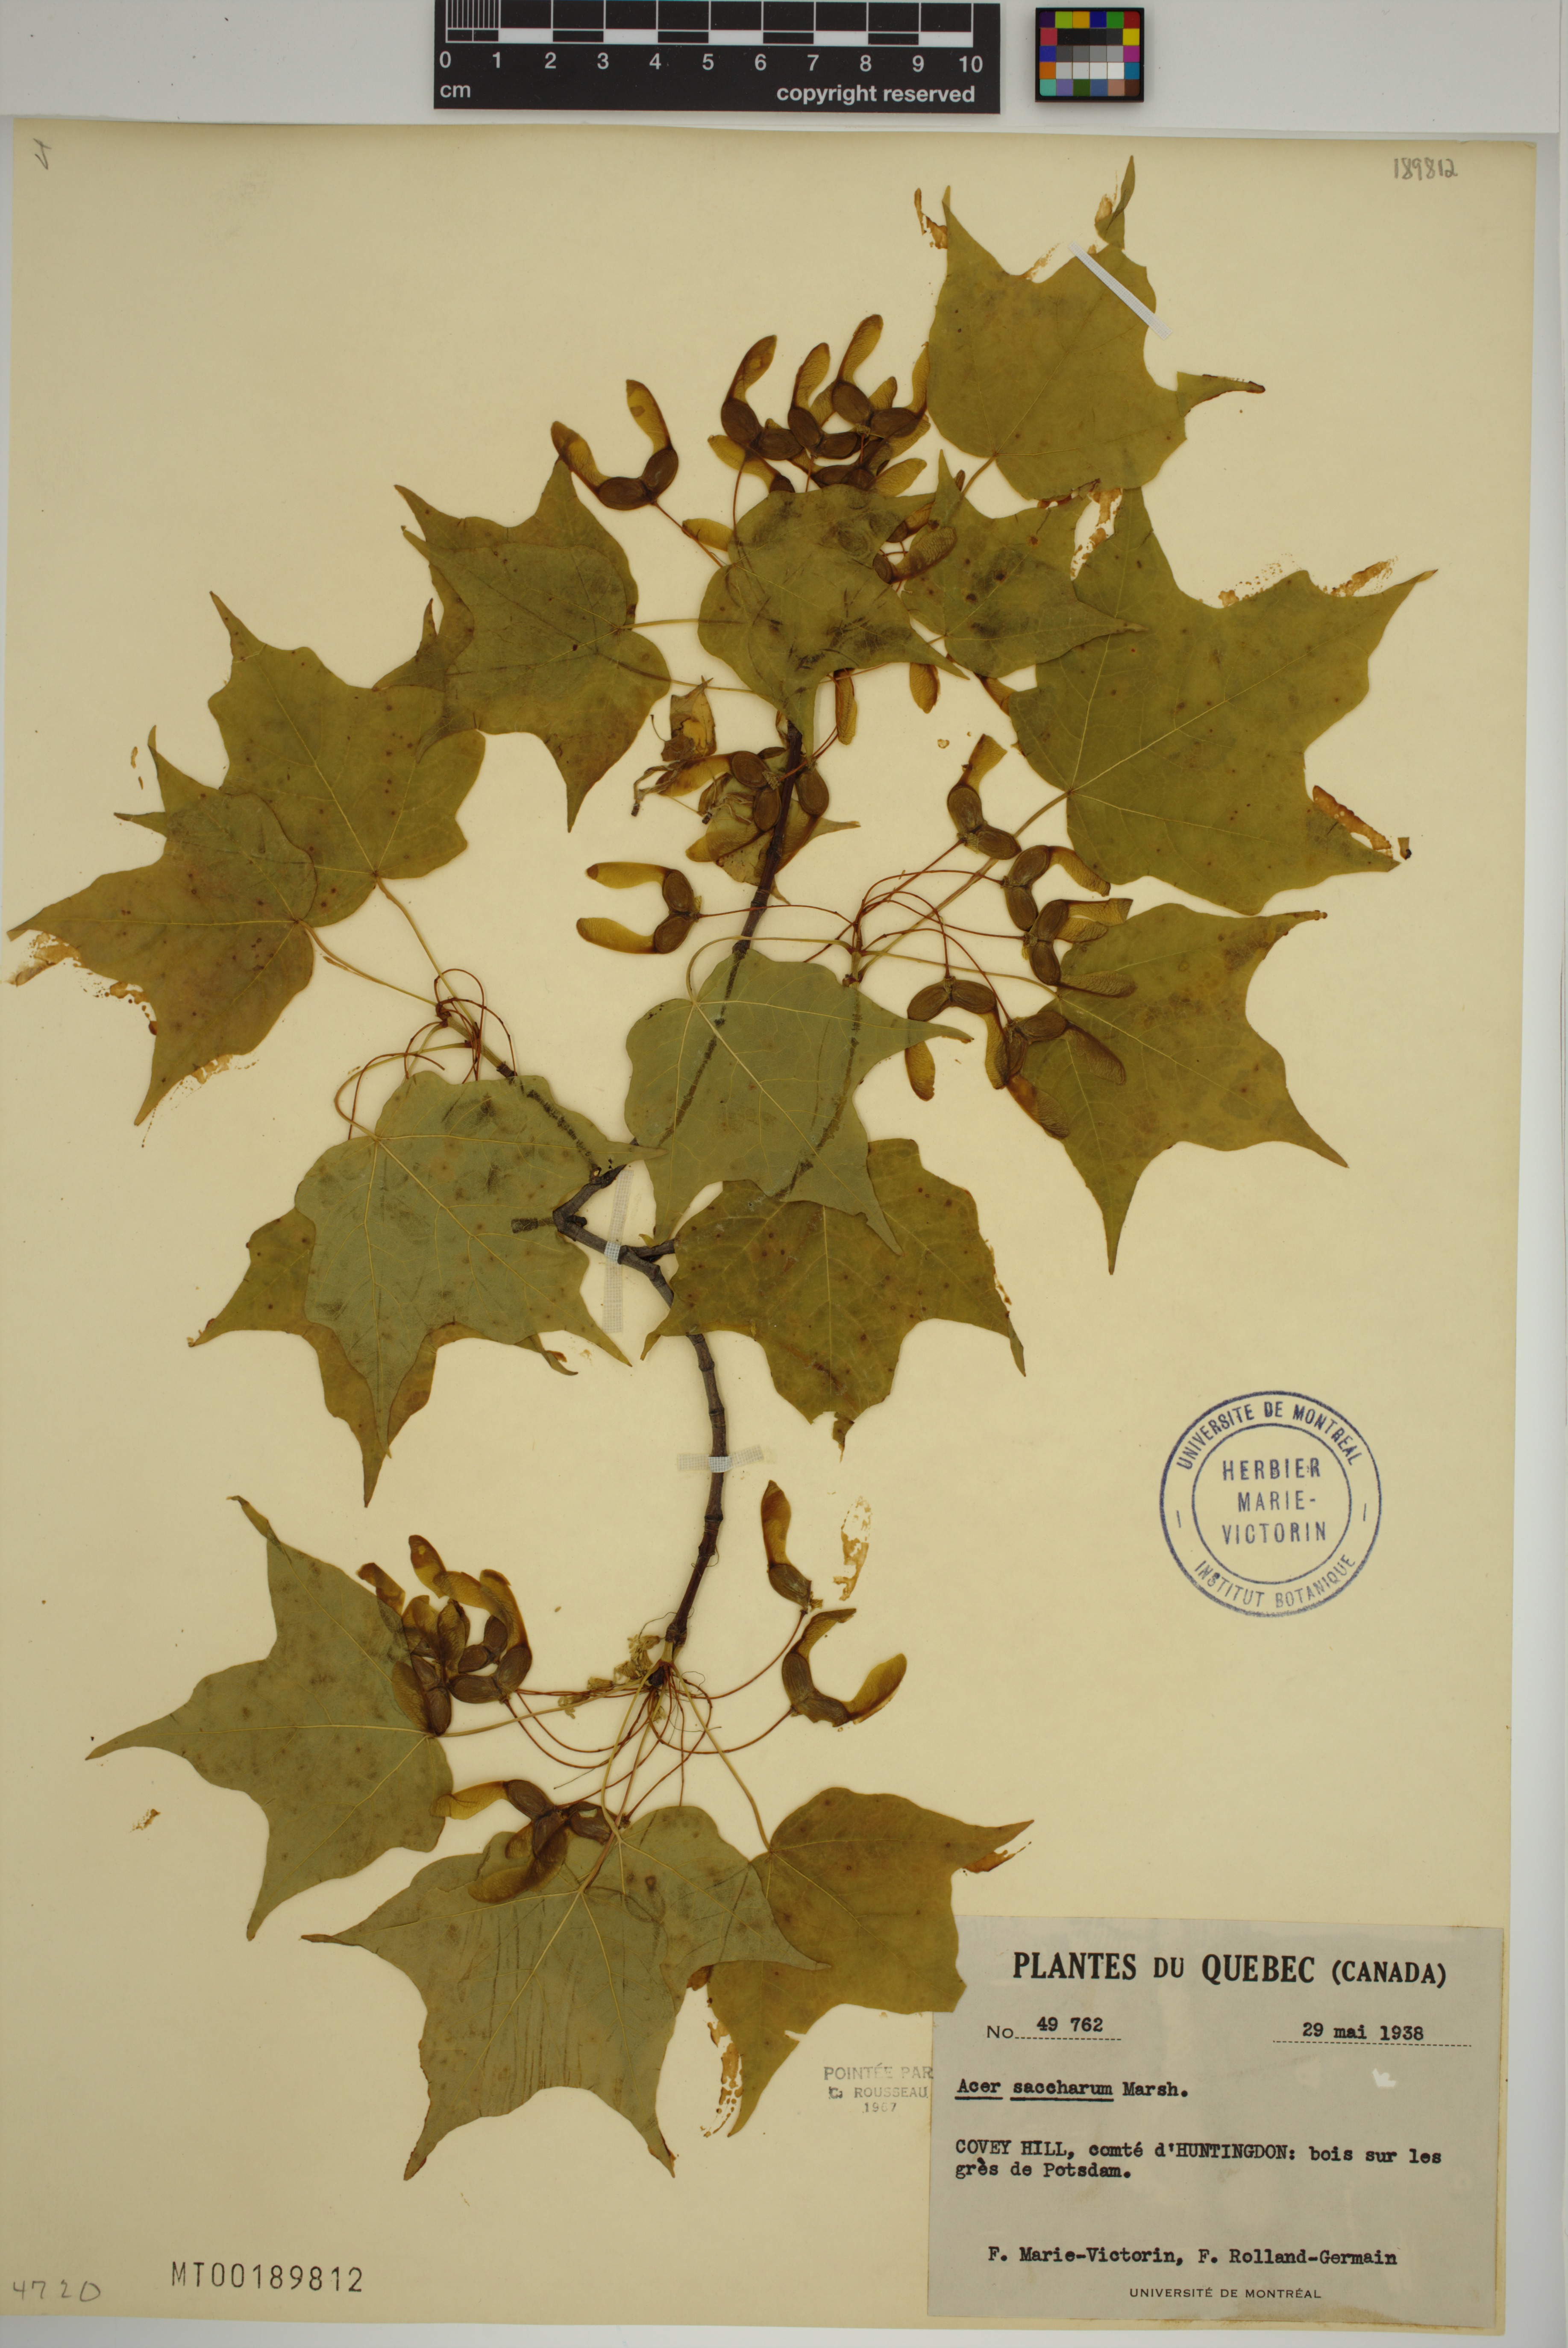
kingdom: Plantae
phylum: Tracheophyta
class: Magnoliopsida
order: Sapindales
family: Sapindaceae
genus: Acer
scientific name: Acer saccharum
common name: Sugar maple
